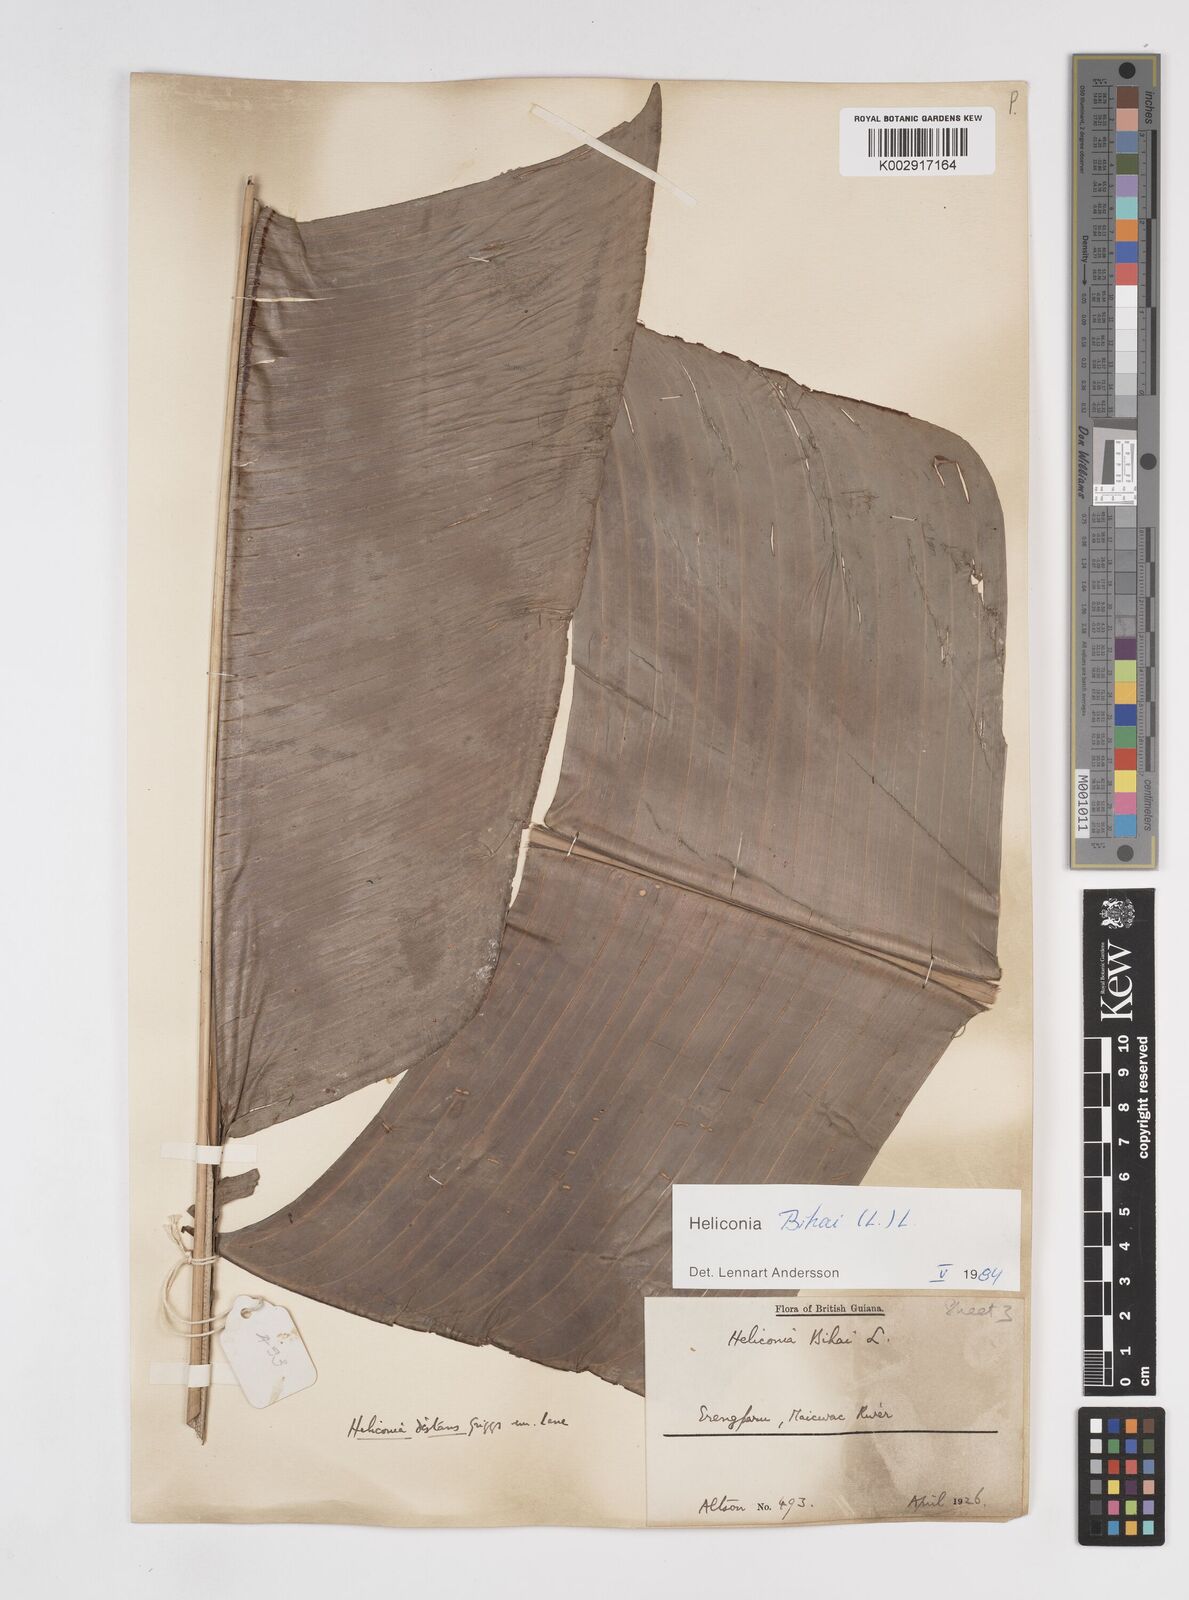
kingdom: Plantae
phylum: Tracheophyta
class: Liliopsida
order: Zingiberales
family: Heliconiaceae
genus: Heliconia
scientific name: Heliconia bihai
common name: Macaw flower
